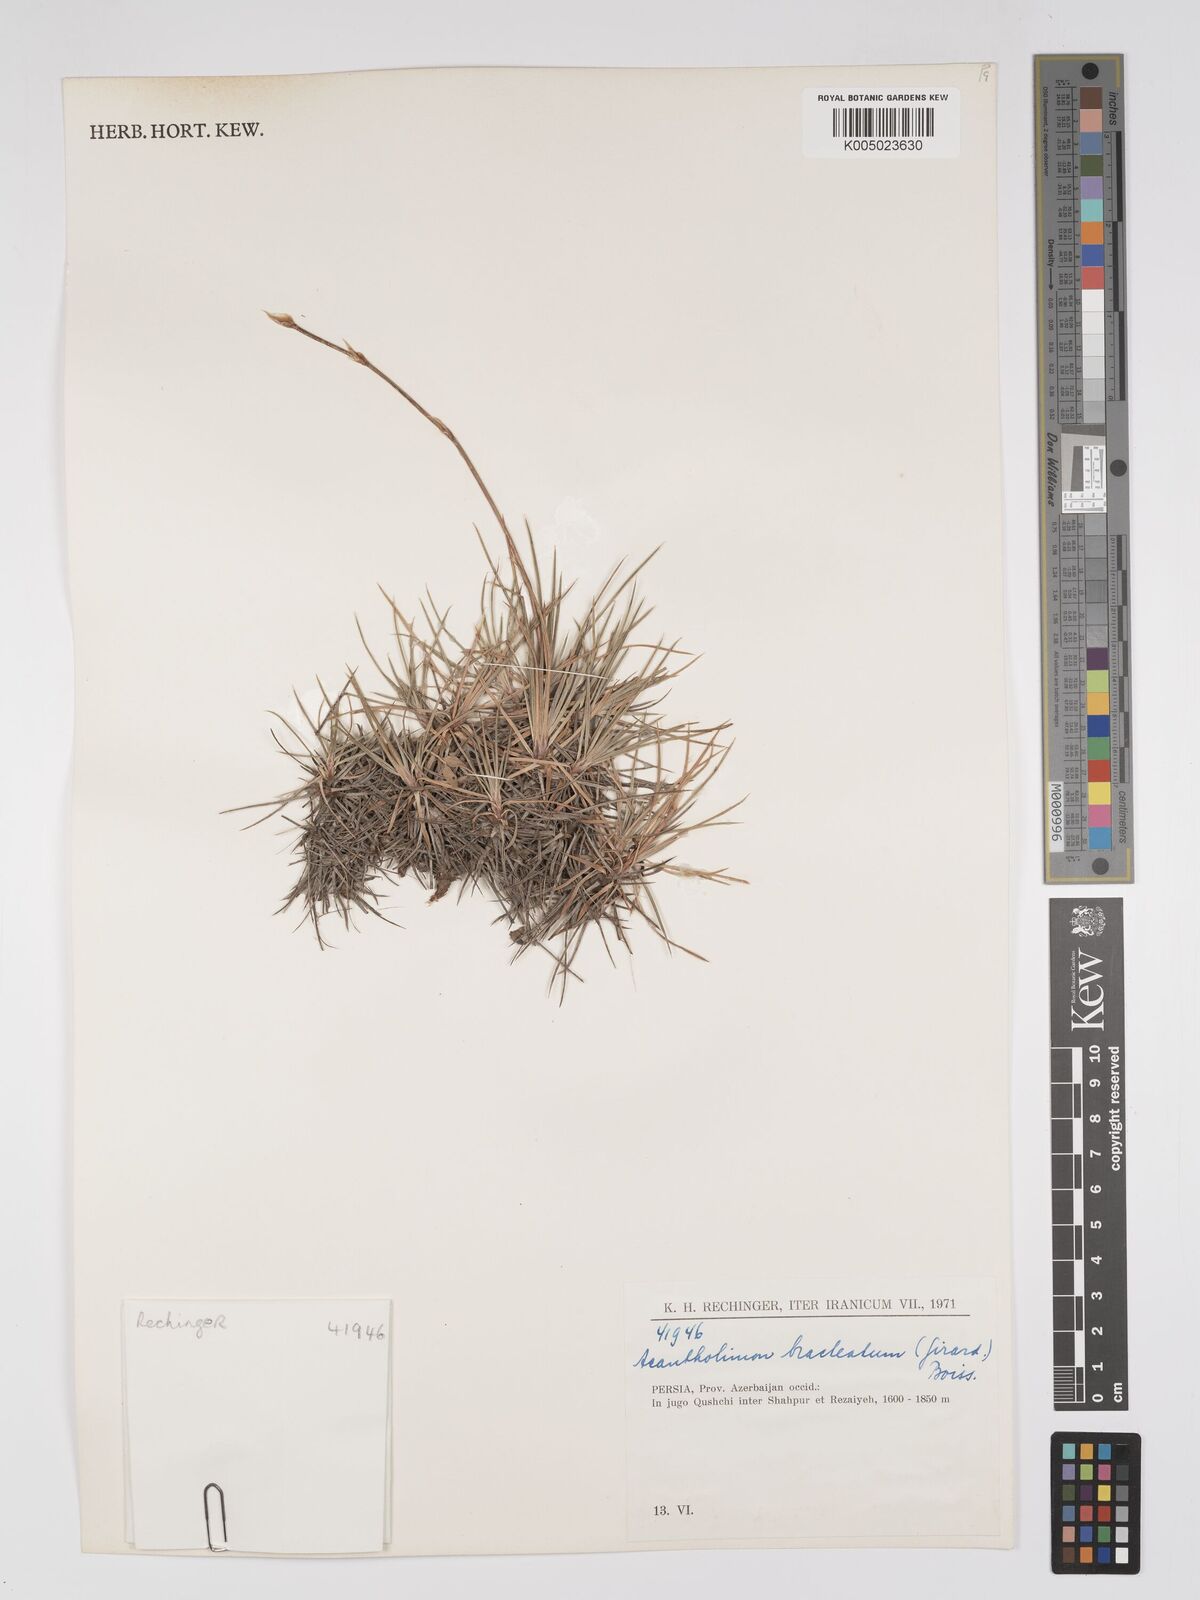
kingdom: Plantae
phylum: Tracheophyta
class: Magnoliopsida
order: Caryophyllales
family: Plumbaginaceae
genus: Acantholimon
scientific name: Acantholimon bracteatum
